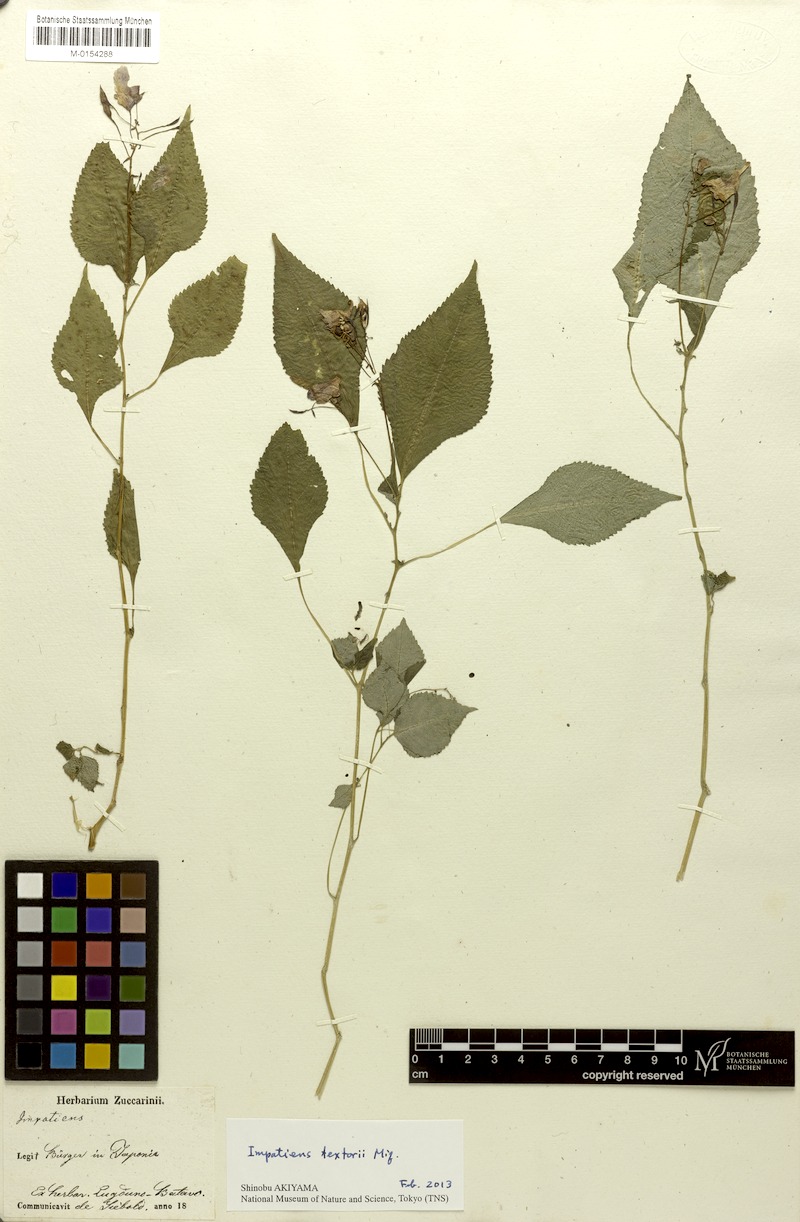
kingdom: Plantae
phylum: Tracheophyta
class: Magnoliopsida
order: Ericales
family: Balsaminaceae
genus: Impatiens
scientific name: Impatiens textorii
